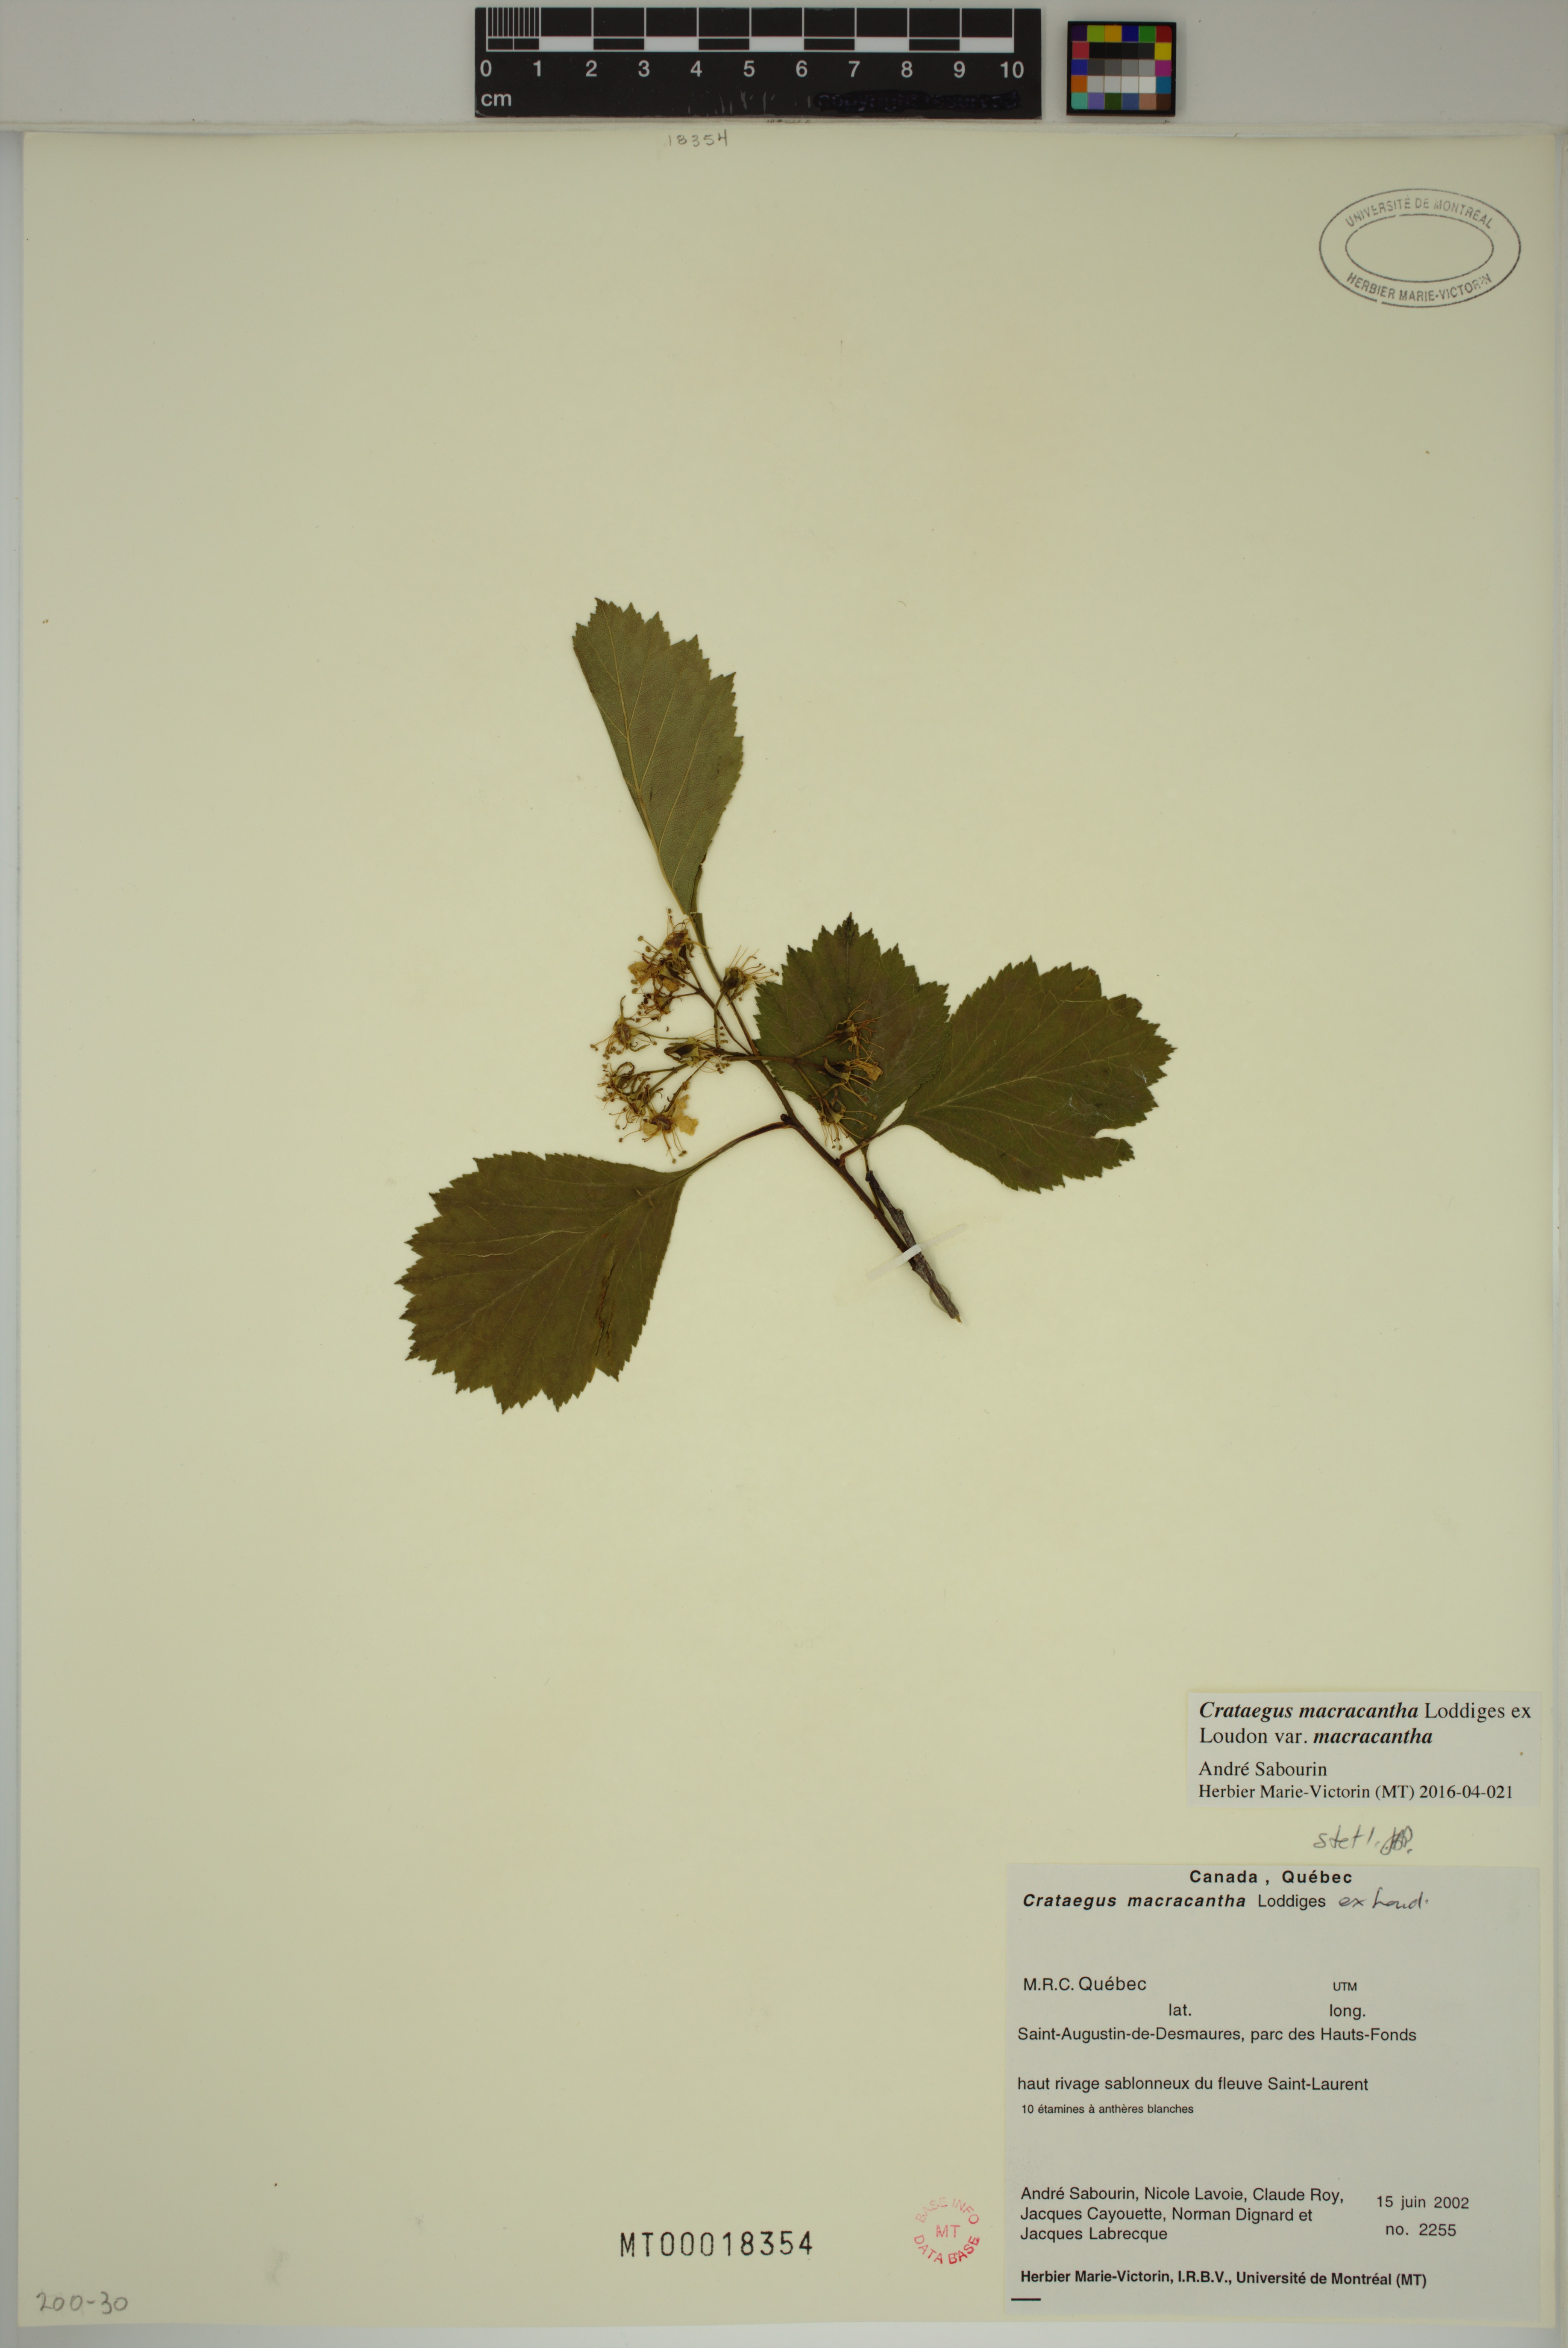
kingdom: Plantae
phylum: Tracheophyta
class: Magnoliopsida
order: Rosales
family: Rosaceae
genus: Crataegus
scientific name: Crataegus macracantha
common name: Large-thorn hawthorn
